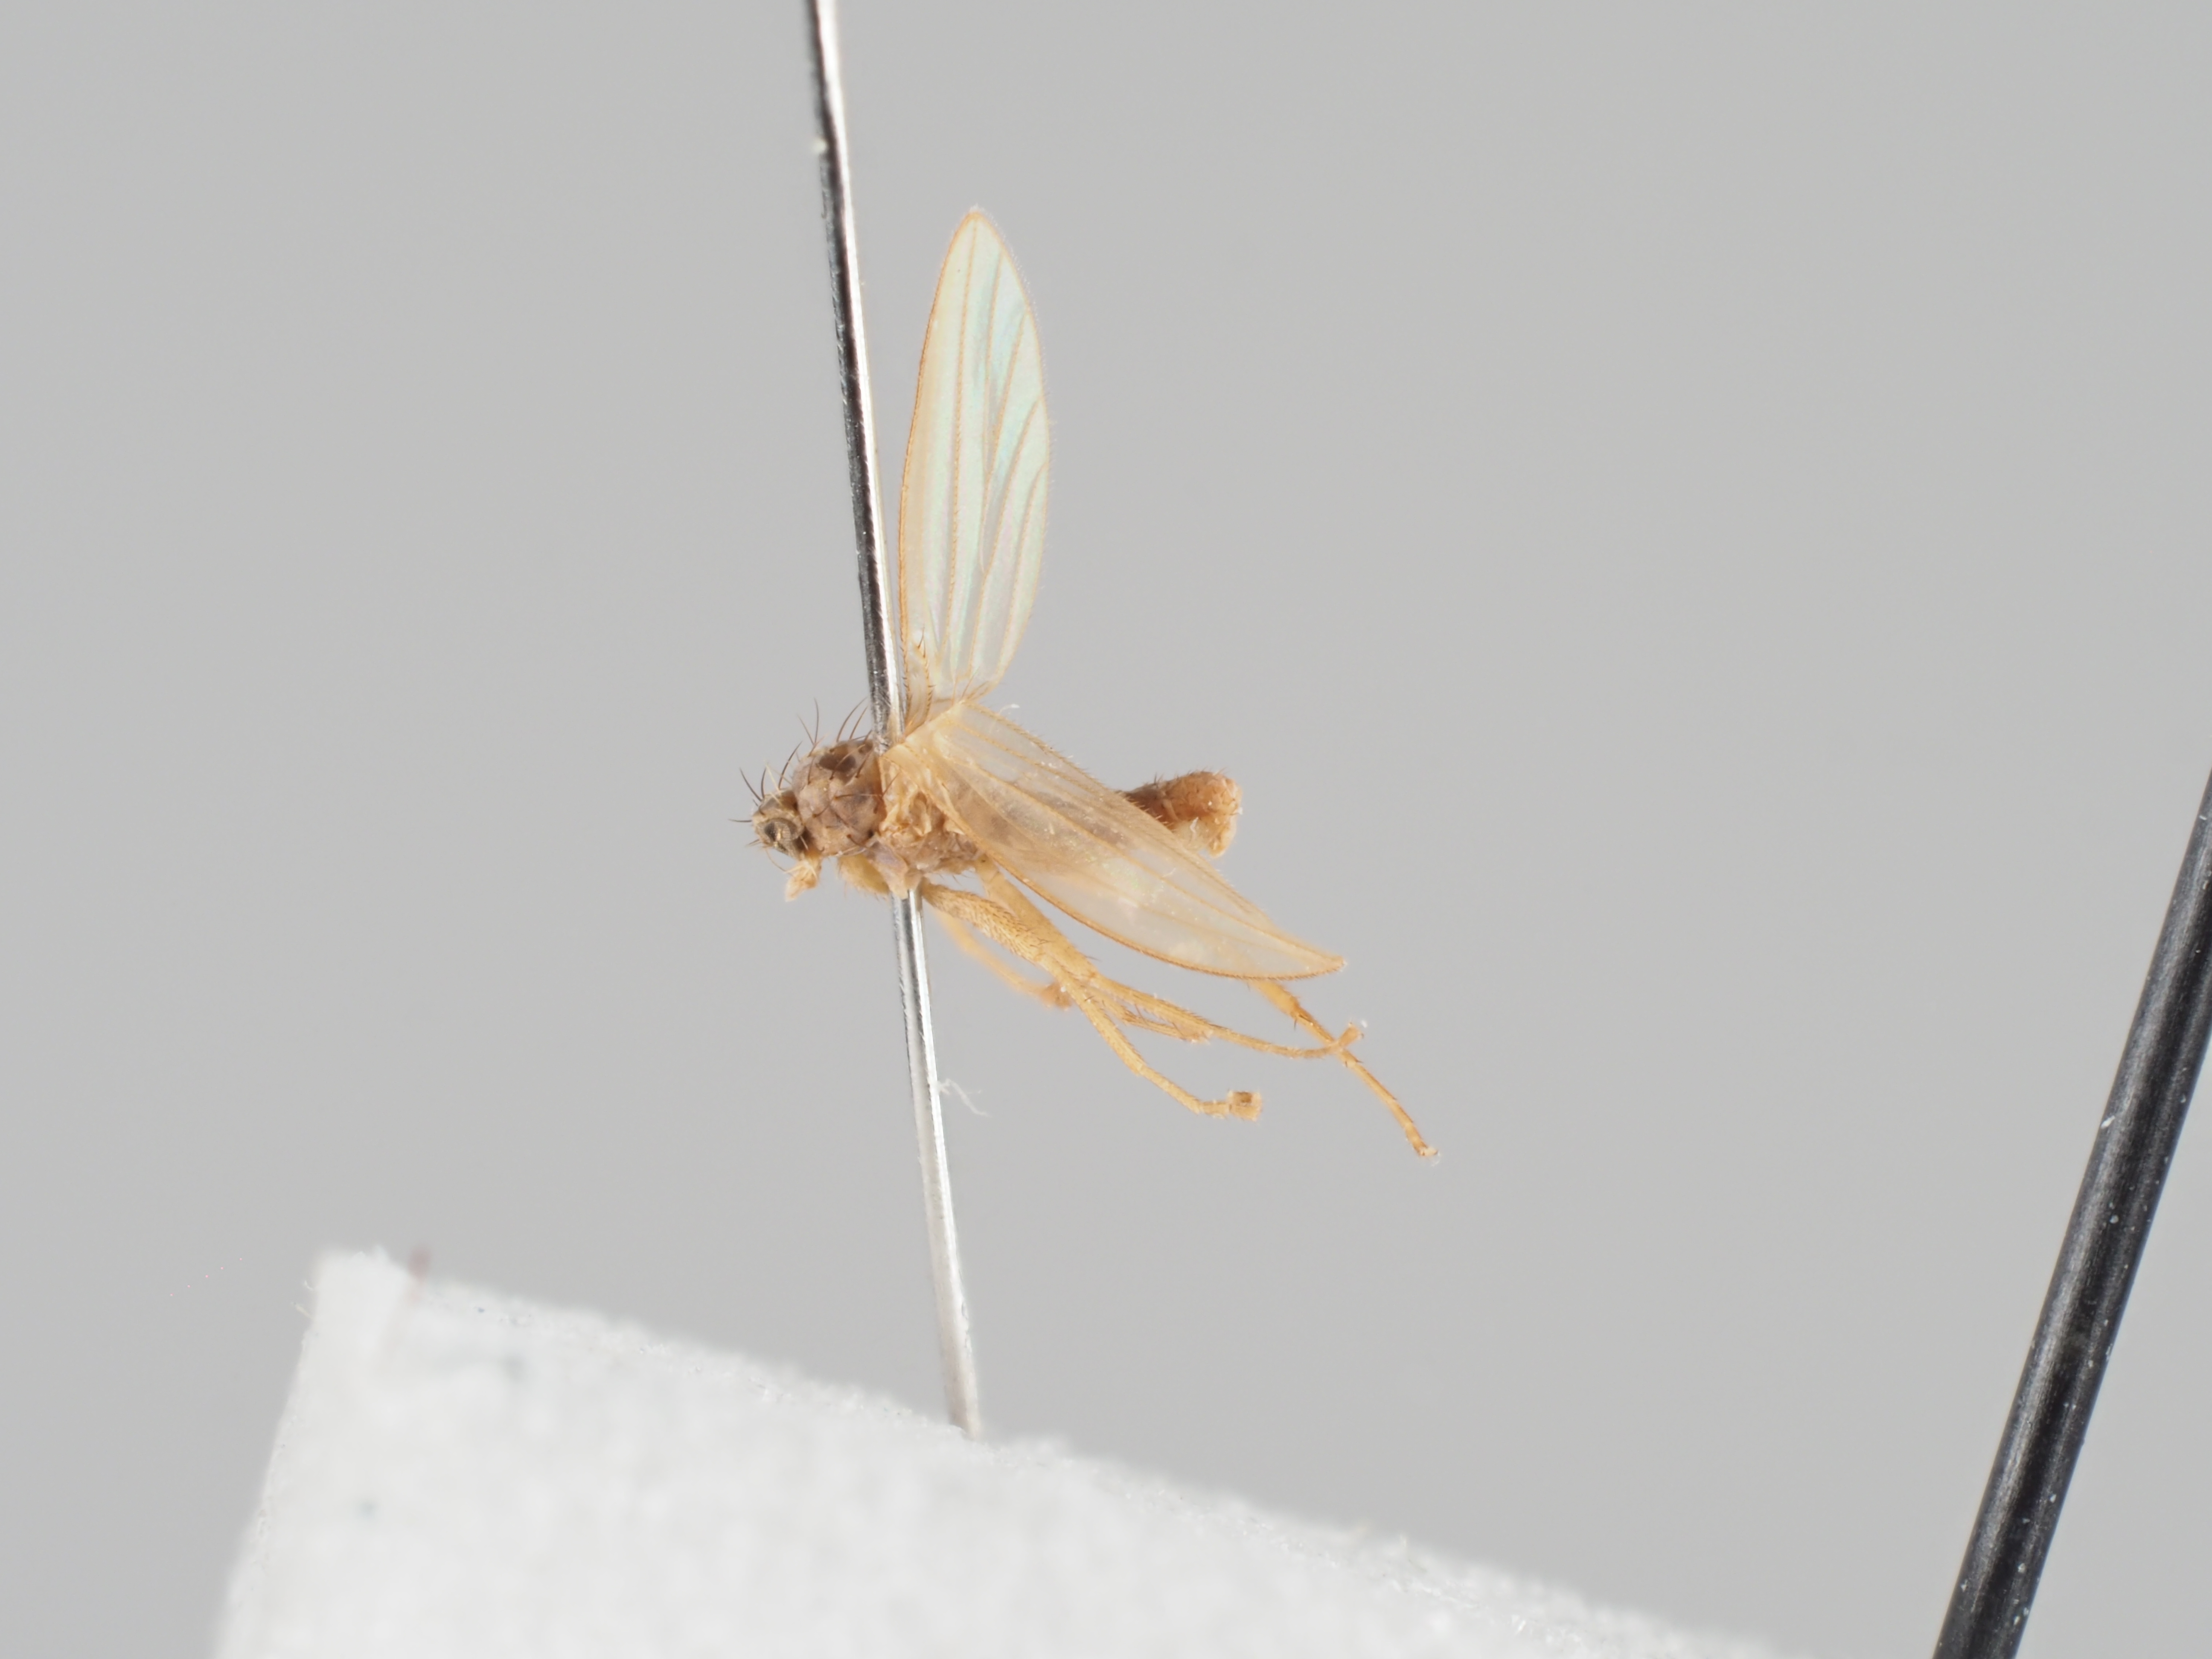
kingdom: Animalia
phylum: Arthropoda
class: Insecta
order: Diptera
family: Lonchopteridae
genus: Lonchoptera
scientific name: Lonchoptera meijeri
